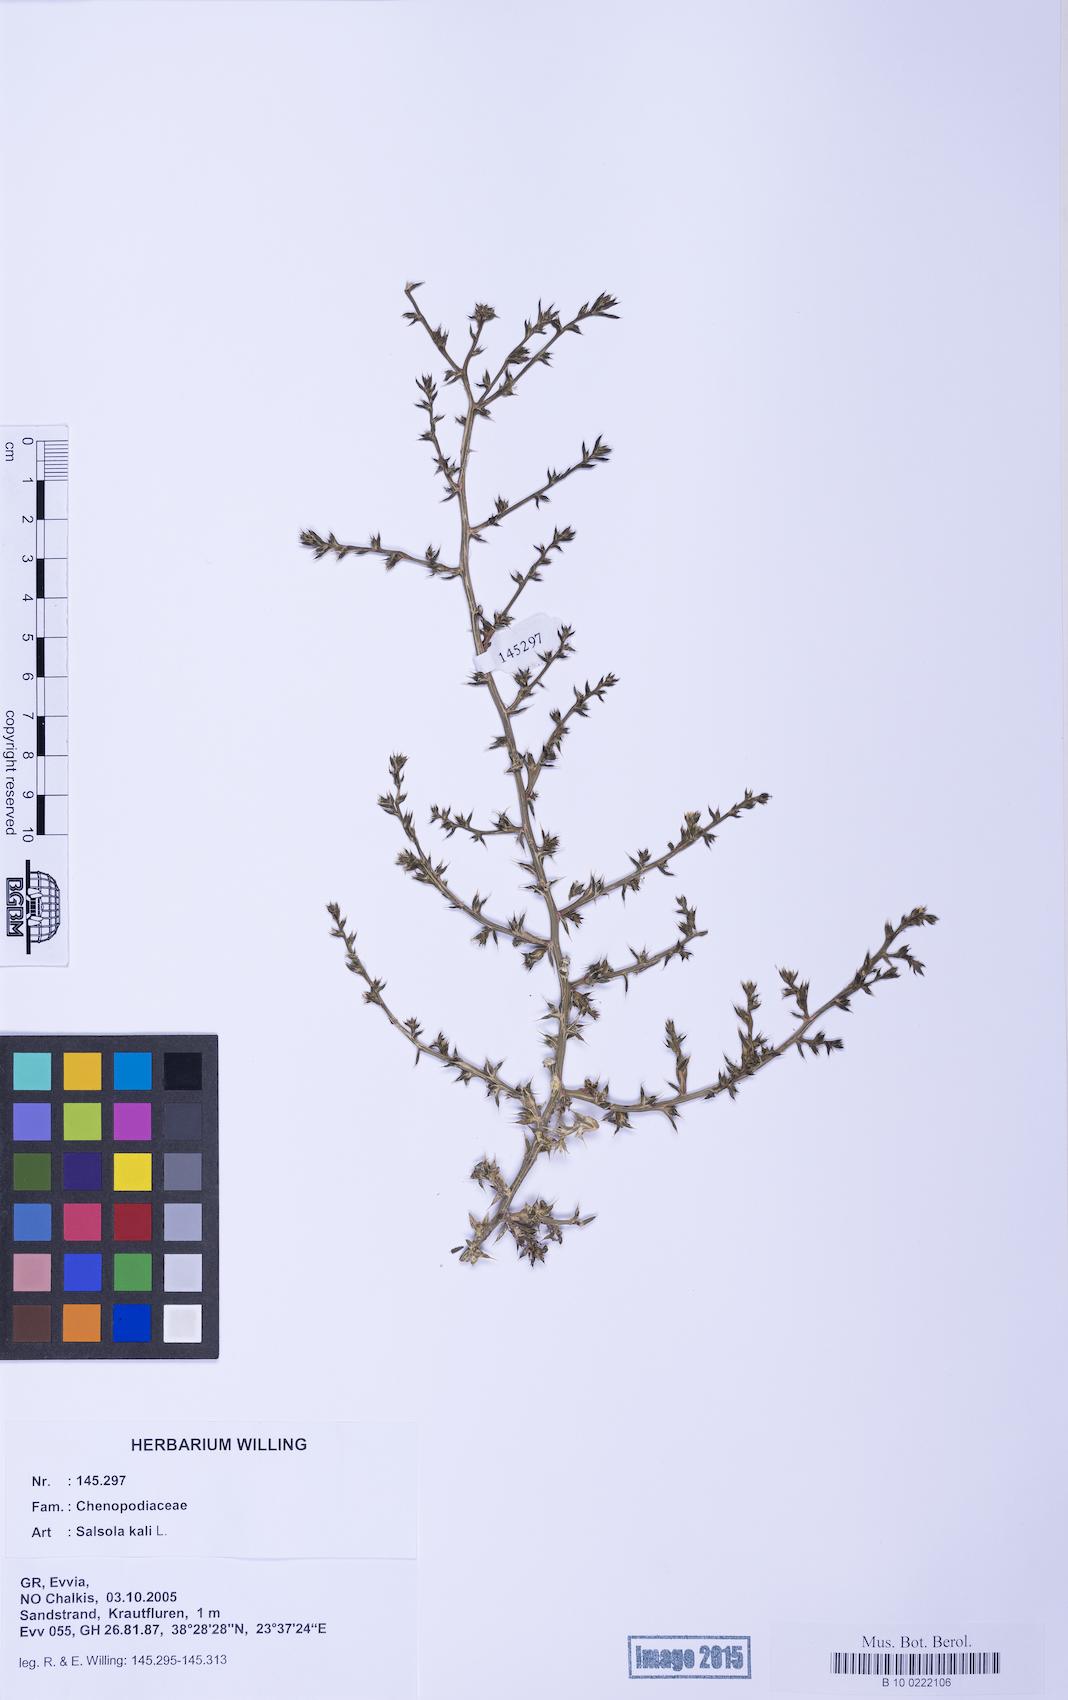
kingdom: Plantae
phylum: Tracheophyta
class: Magnoliopsida
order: Caryophyllales
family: Amaranthaceae
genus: Salsola
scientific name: Salsola kali
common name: Saltwort
